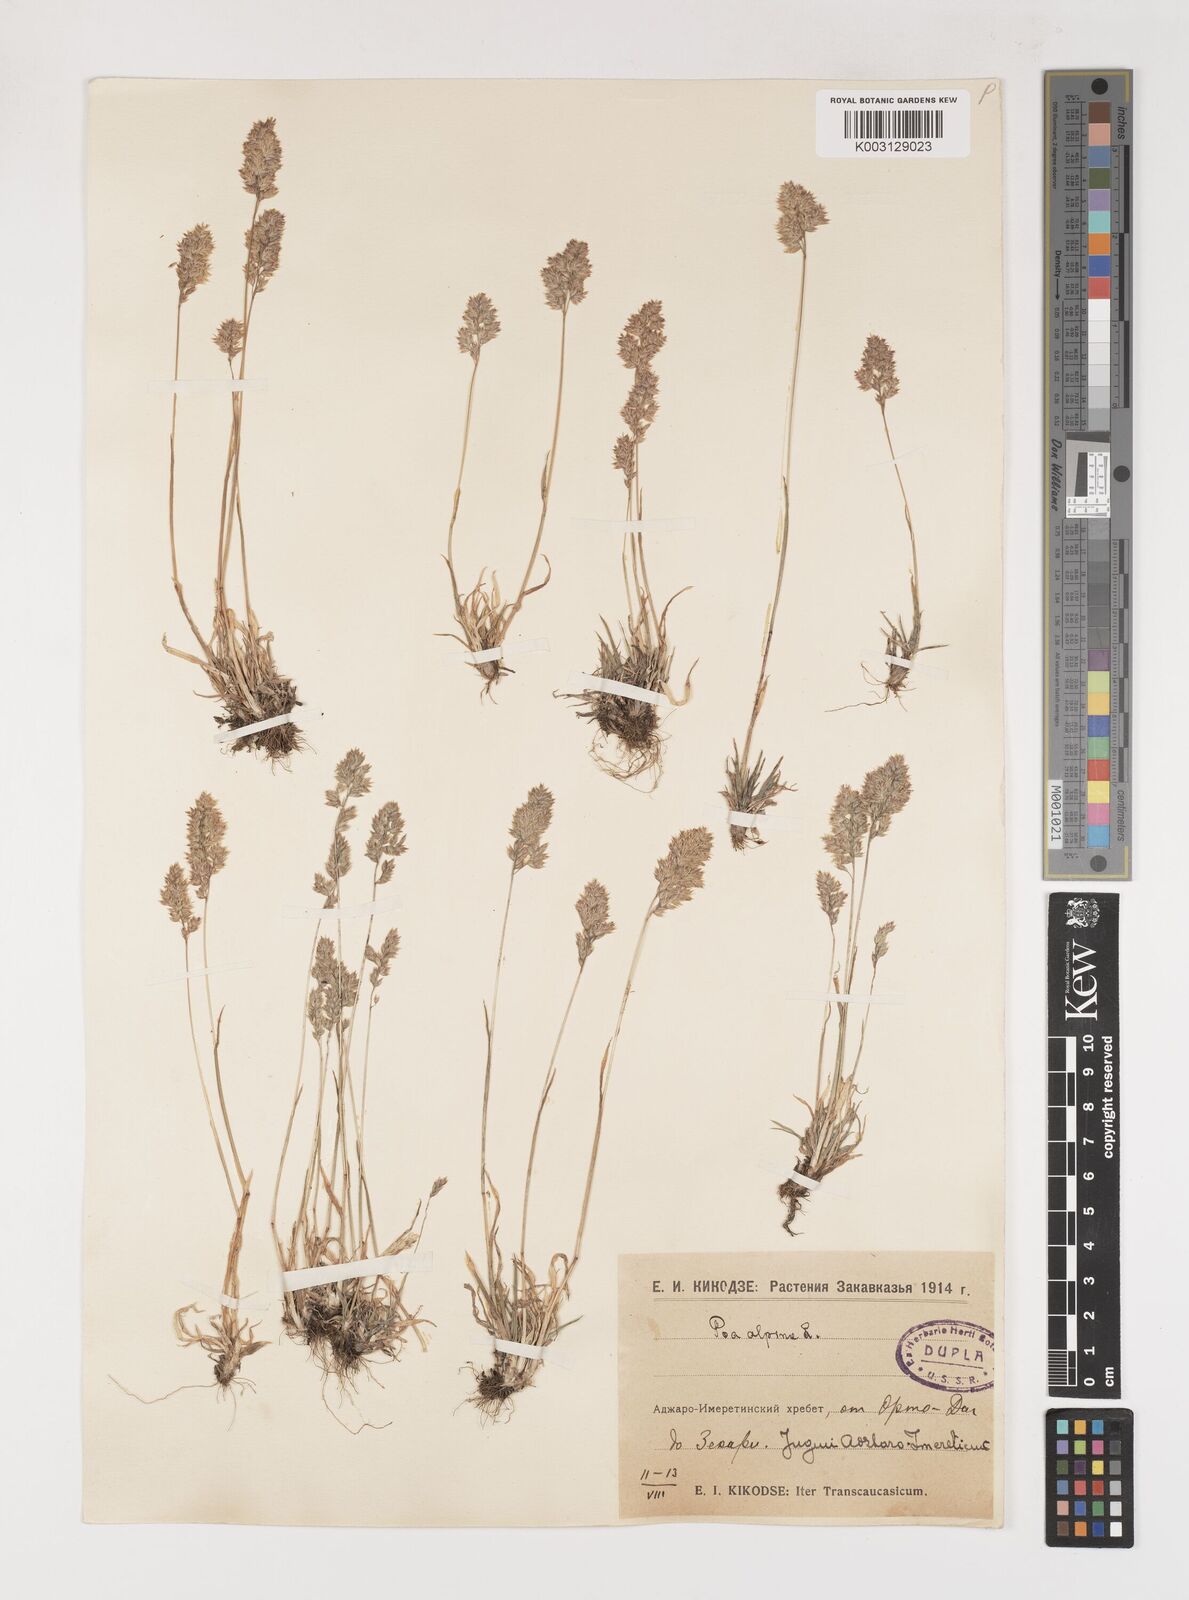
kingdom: Plantae
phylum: Tracheophyta
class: Liliopsida
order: Poales
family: Poaceae
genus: Poa
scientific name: Poa alpina
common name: Alpine bluegrass
